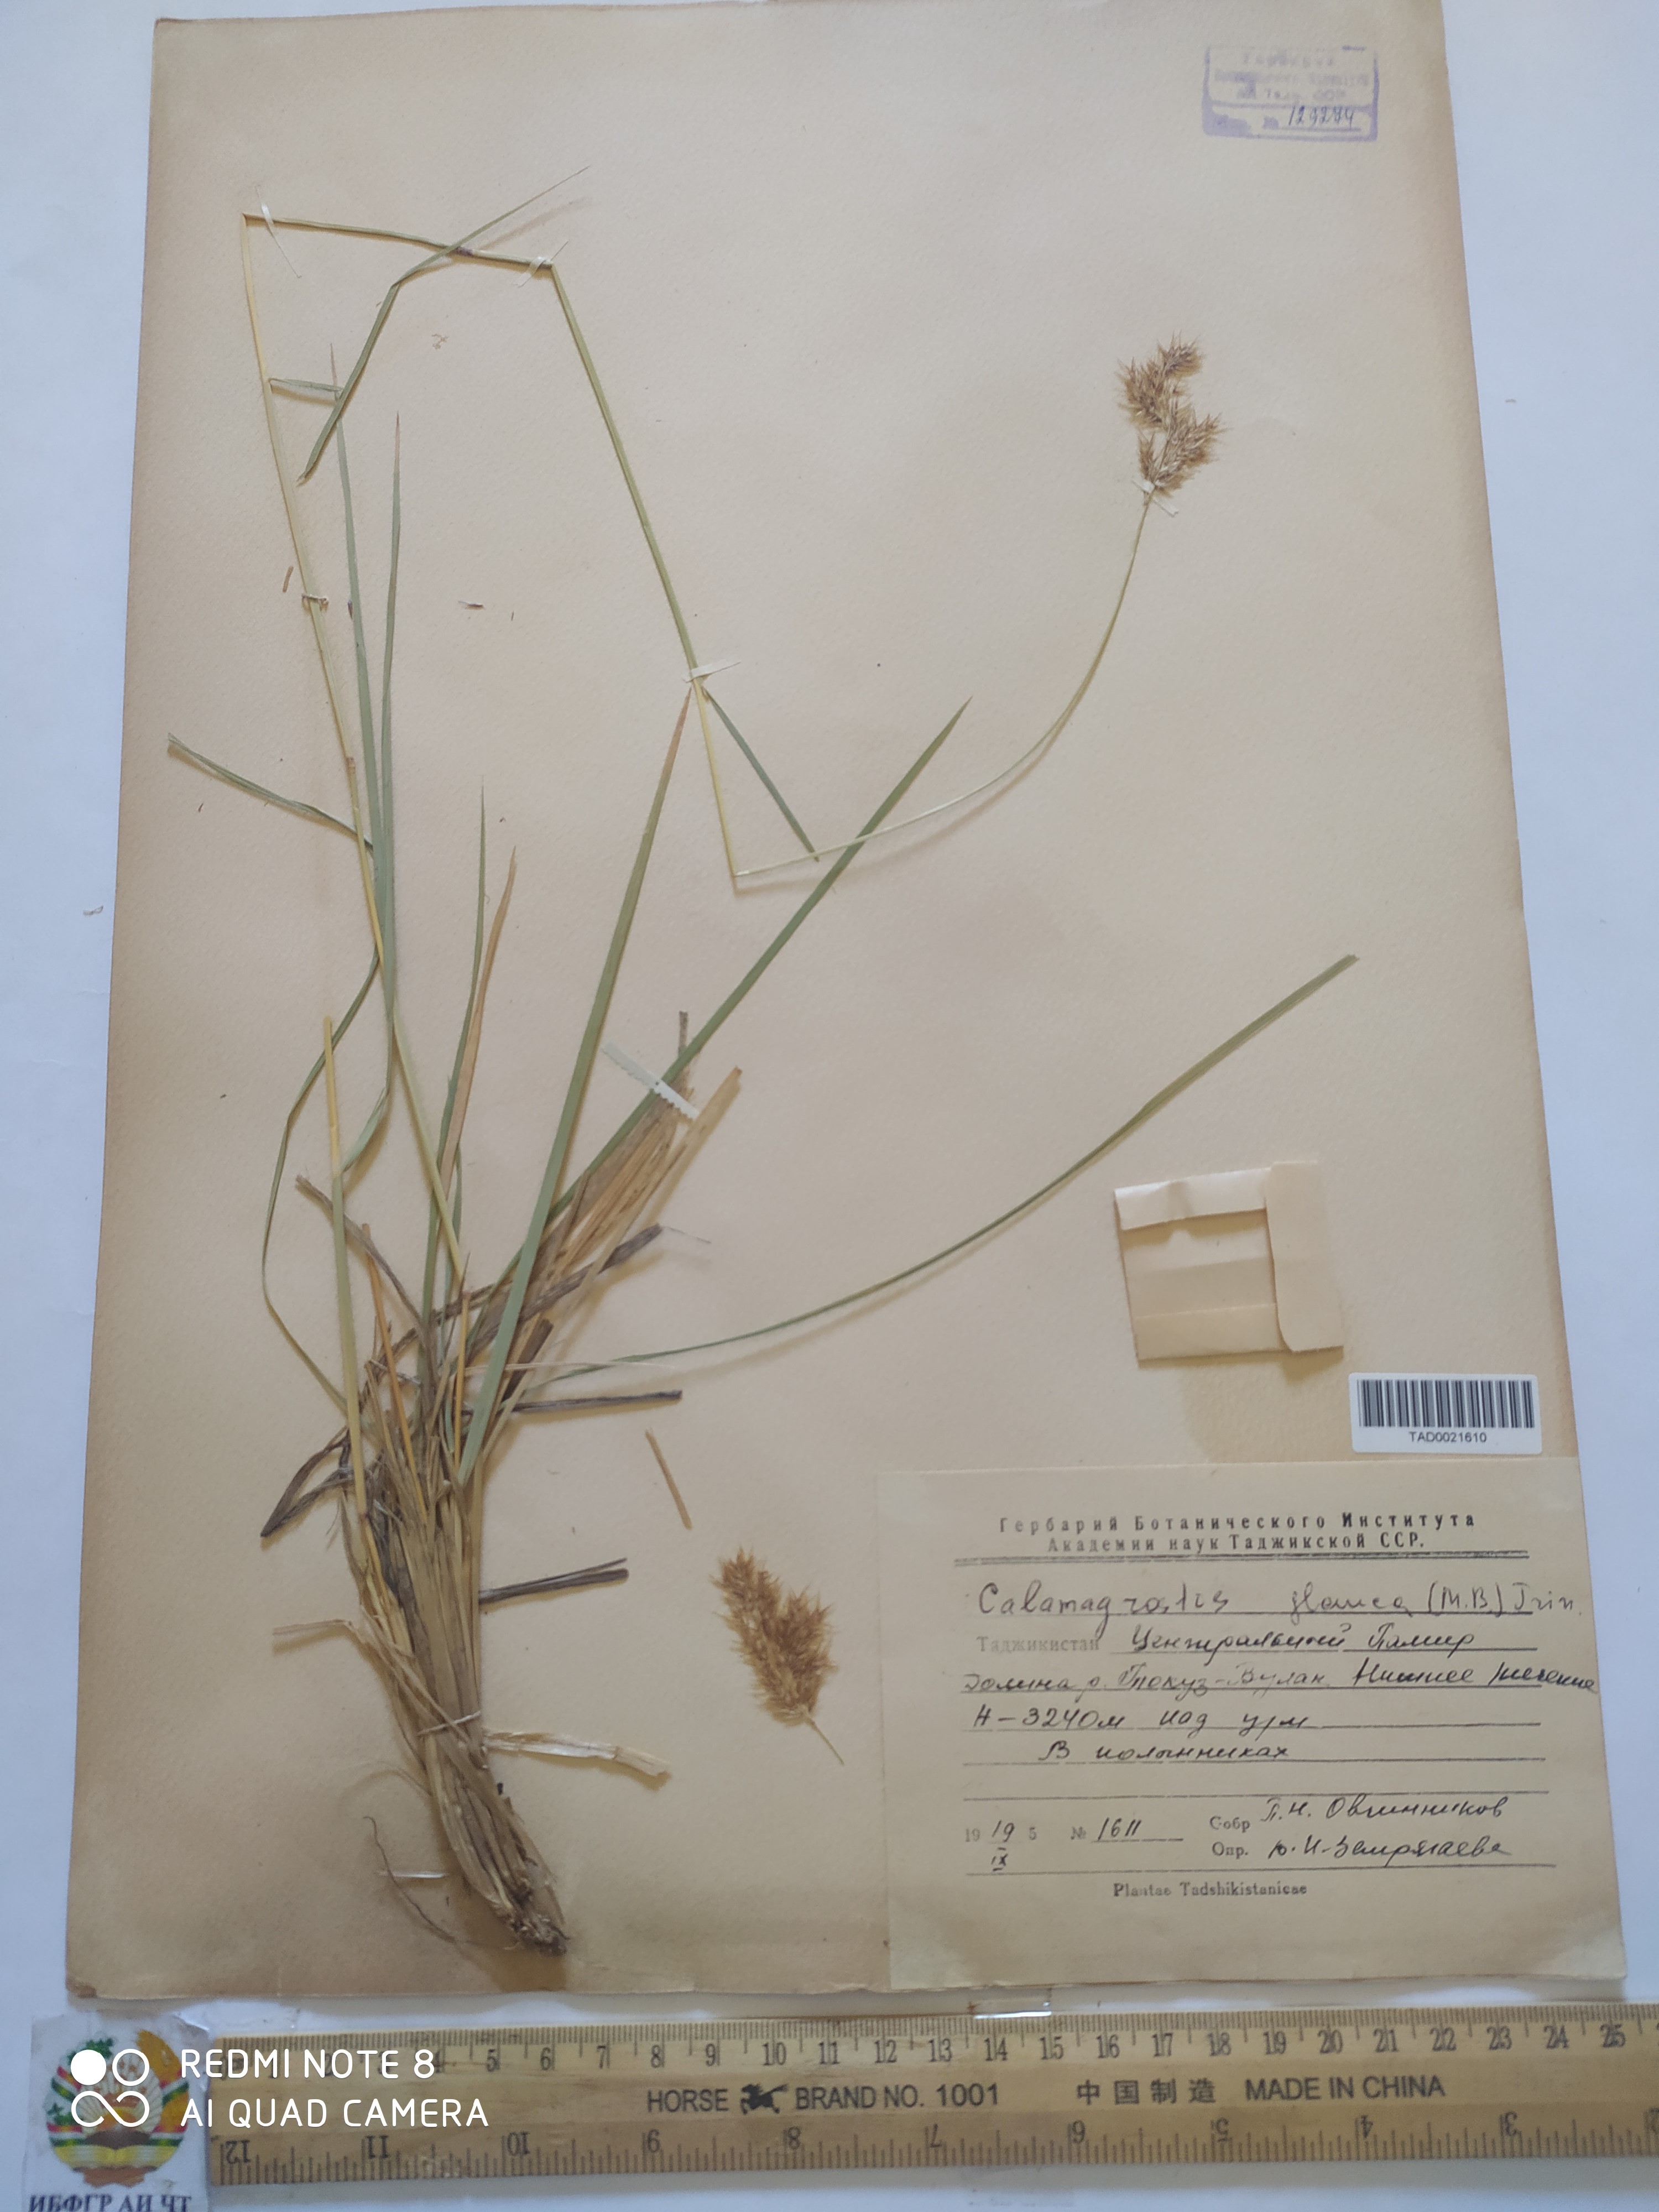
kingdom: Plantae
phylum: Tracheophyta
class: Liliopsida
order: Poales
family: Poaceae
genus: Calamagrostis
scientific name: Calamagrostis pseudophragmites
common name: Coastal small-reed
